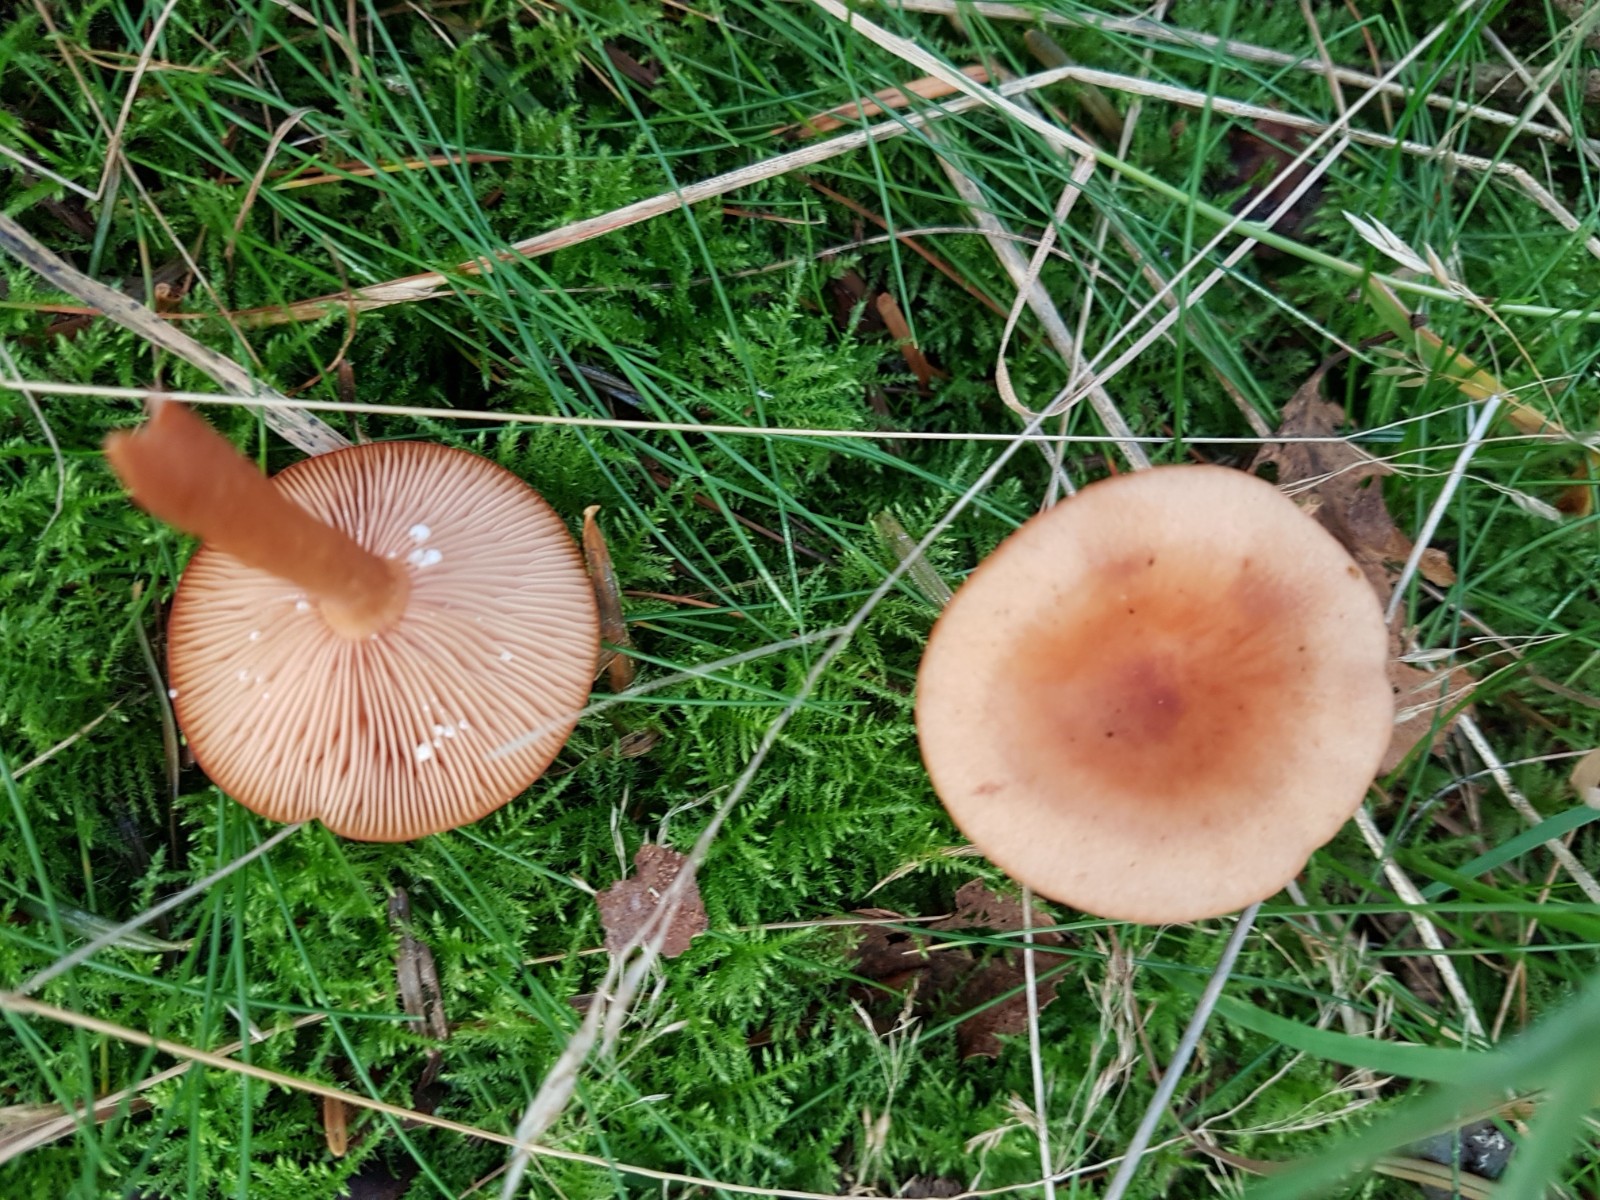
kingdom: Fungi
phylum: Basidiomycota
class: Agaricomycetes
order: Russulales
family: Russulaceae
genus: Lactarius
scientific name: Lactarius tabidus
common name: rynket mælkehat
